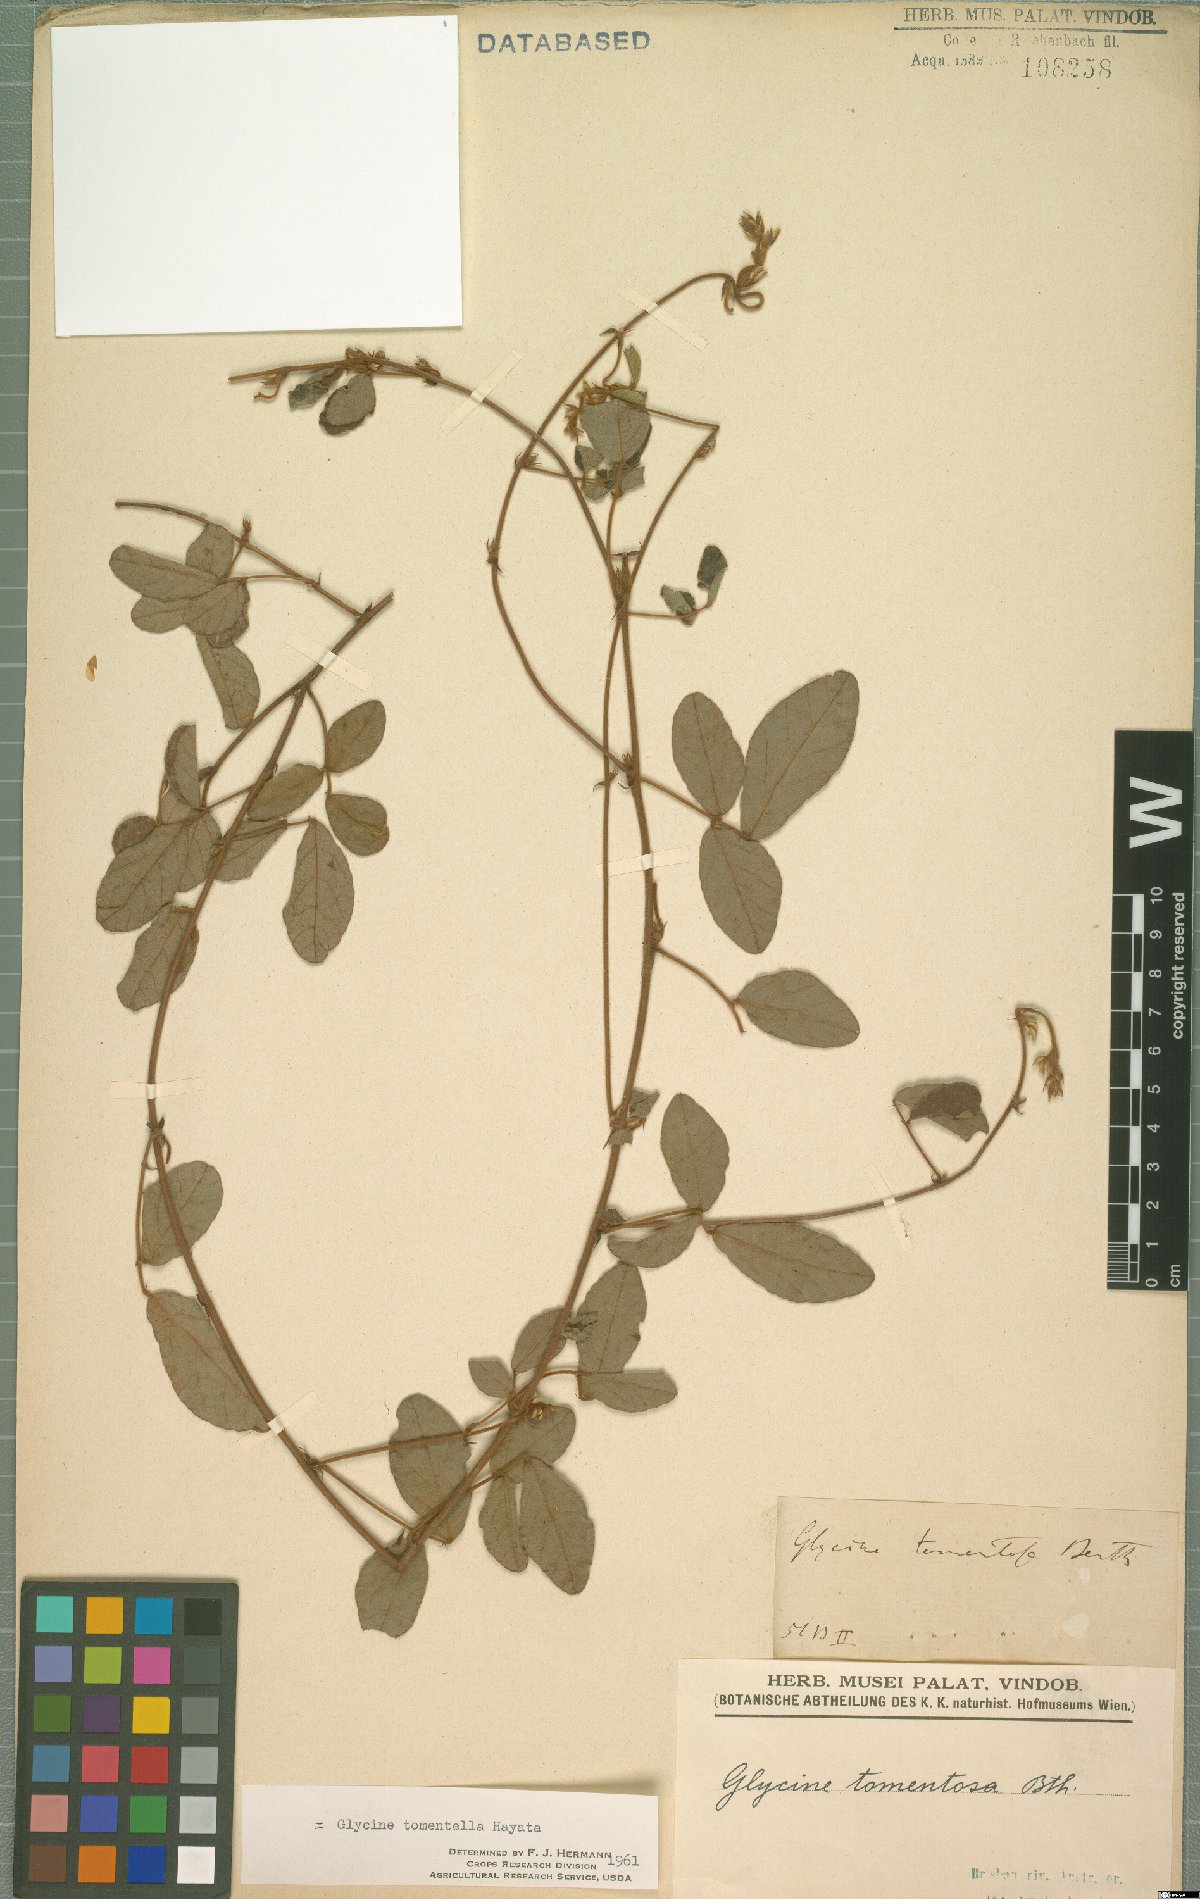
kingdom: Plantae
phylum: Tracheophyta
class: Magnoliopsida
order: Fabales
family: Fabaceae
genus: Glycine
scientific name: Glycine tomentella
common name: Hairy glycine
